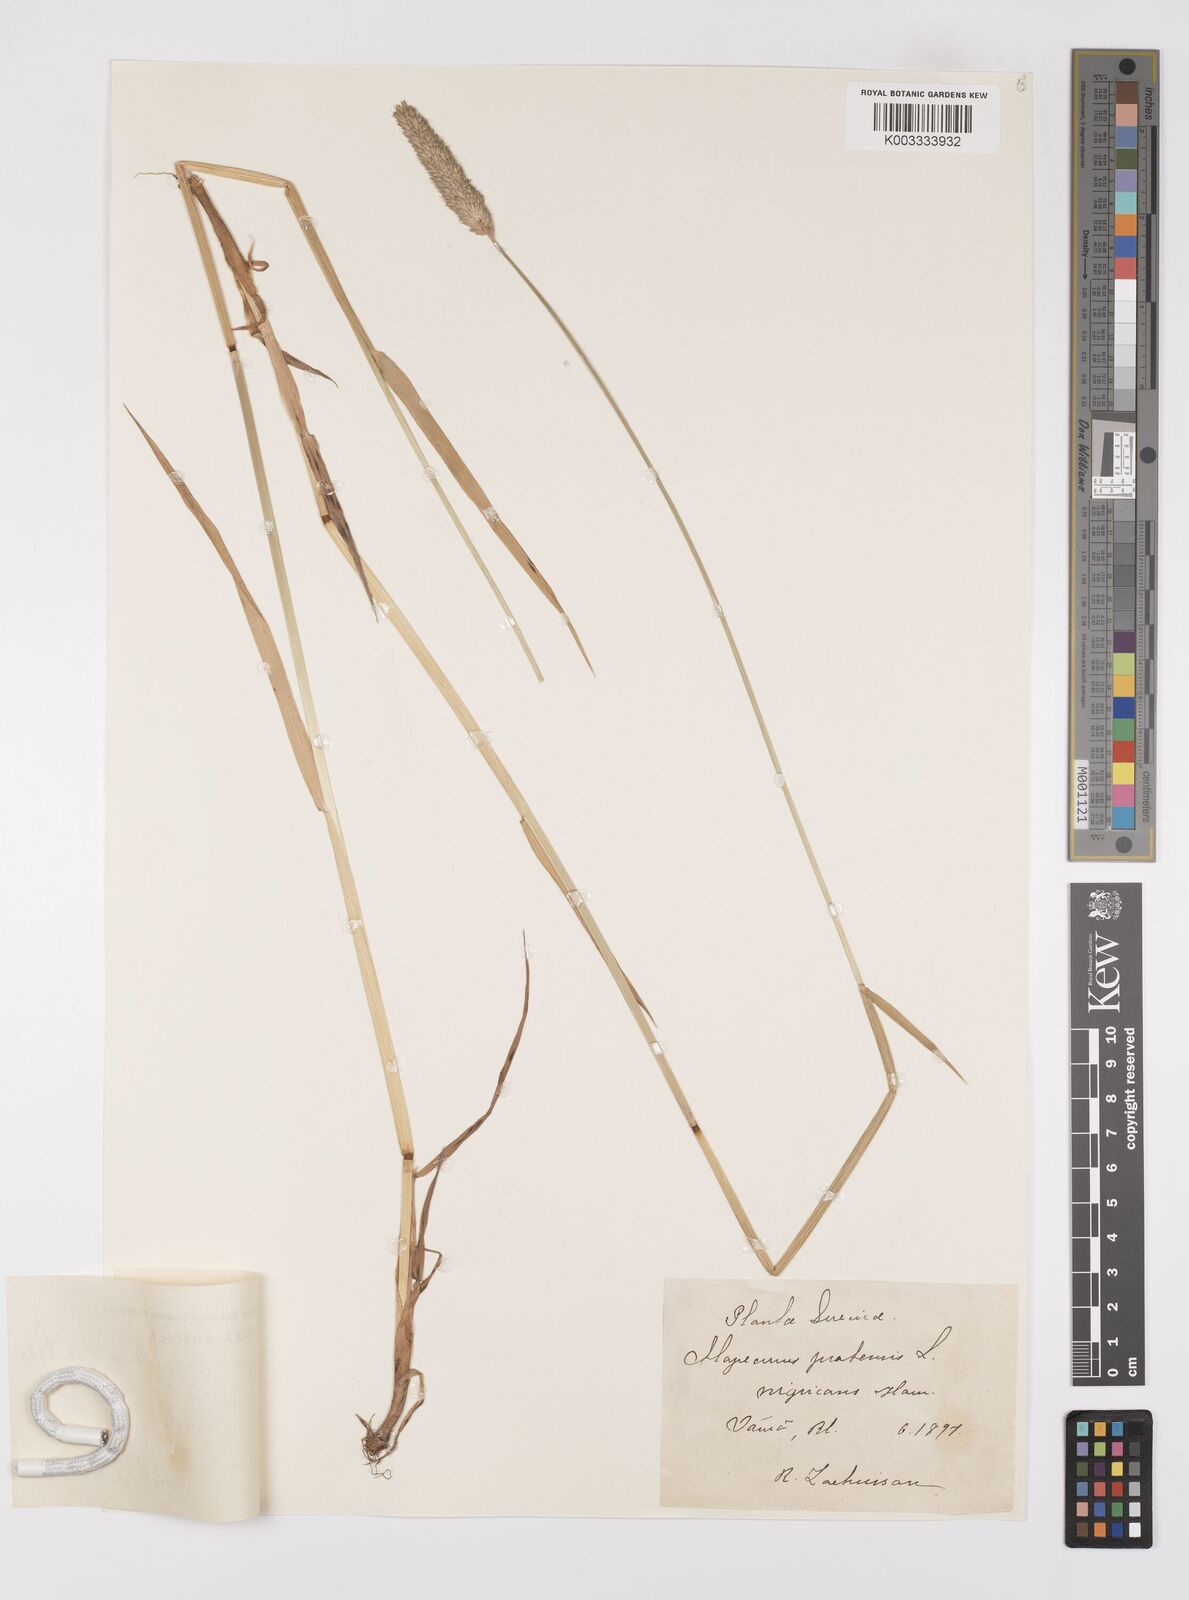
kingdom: Plantae
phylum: Tracheophyta
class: Liliopsida
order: Poales
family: Poaceae
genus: Alopecurus
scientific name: Alopecurus arundinaceus
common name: Creeping meadow foxtail
